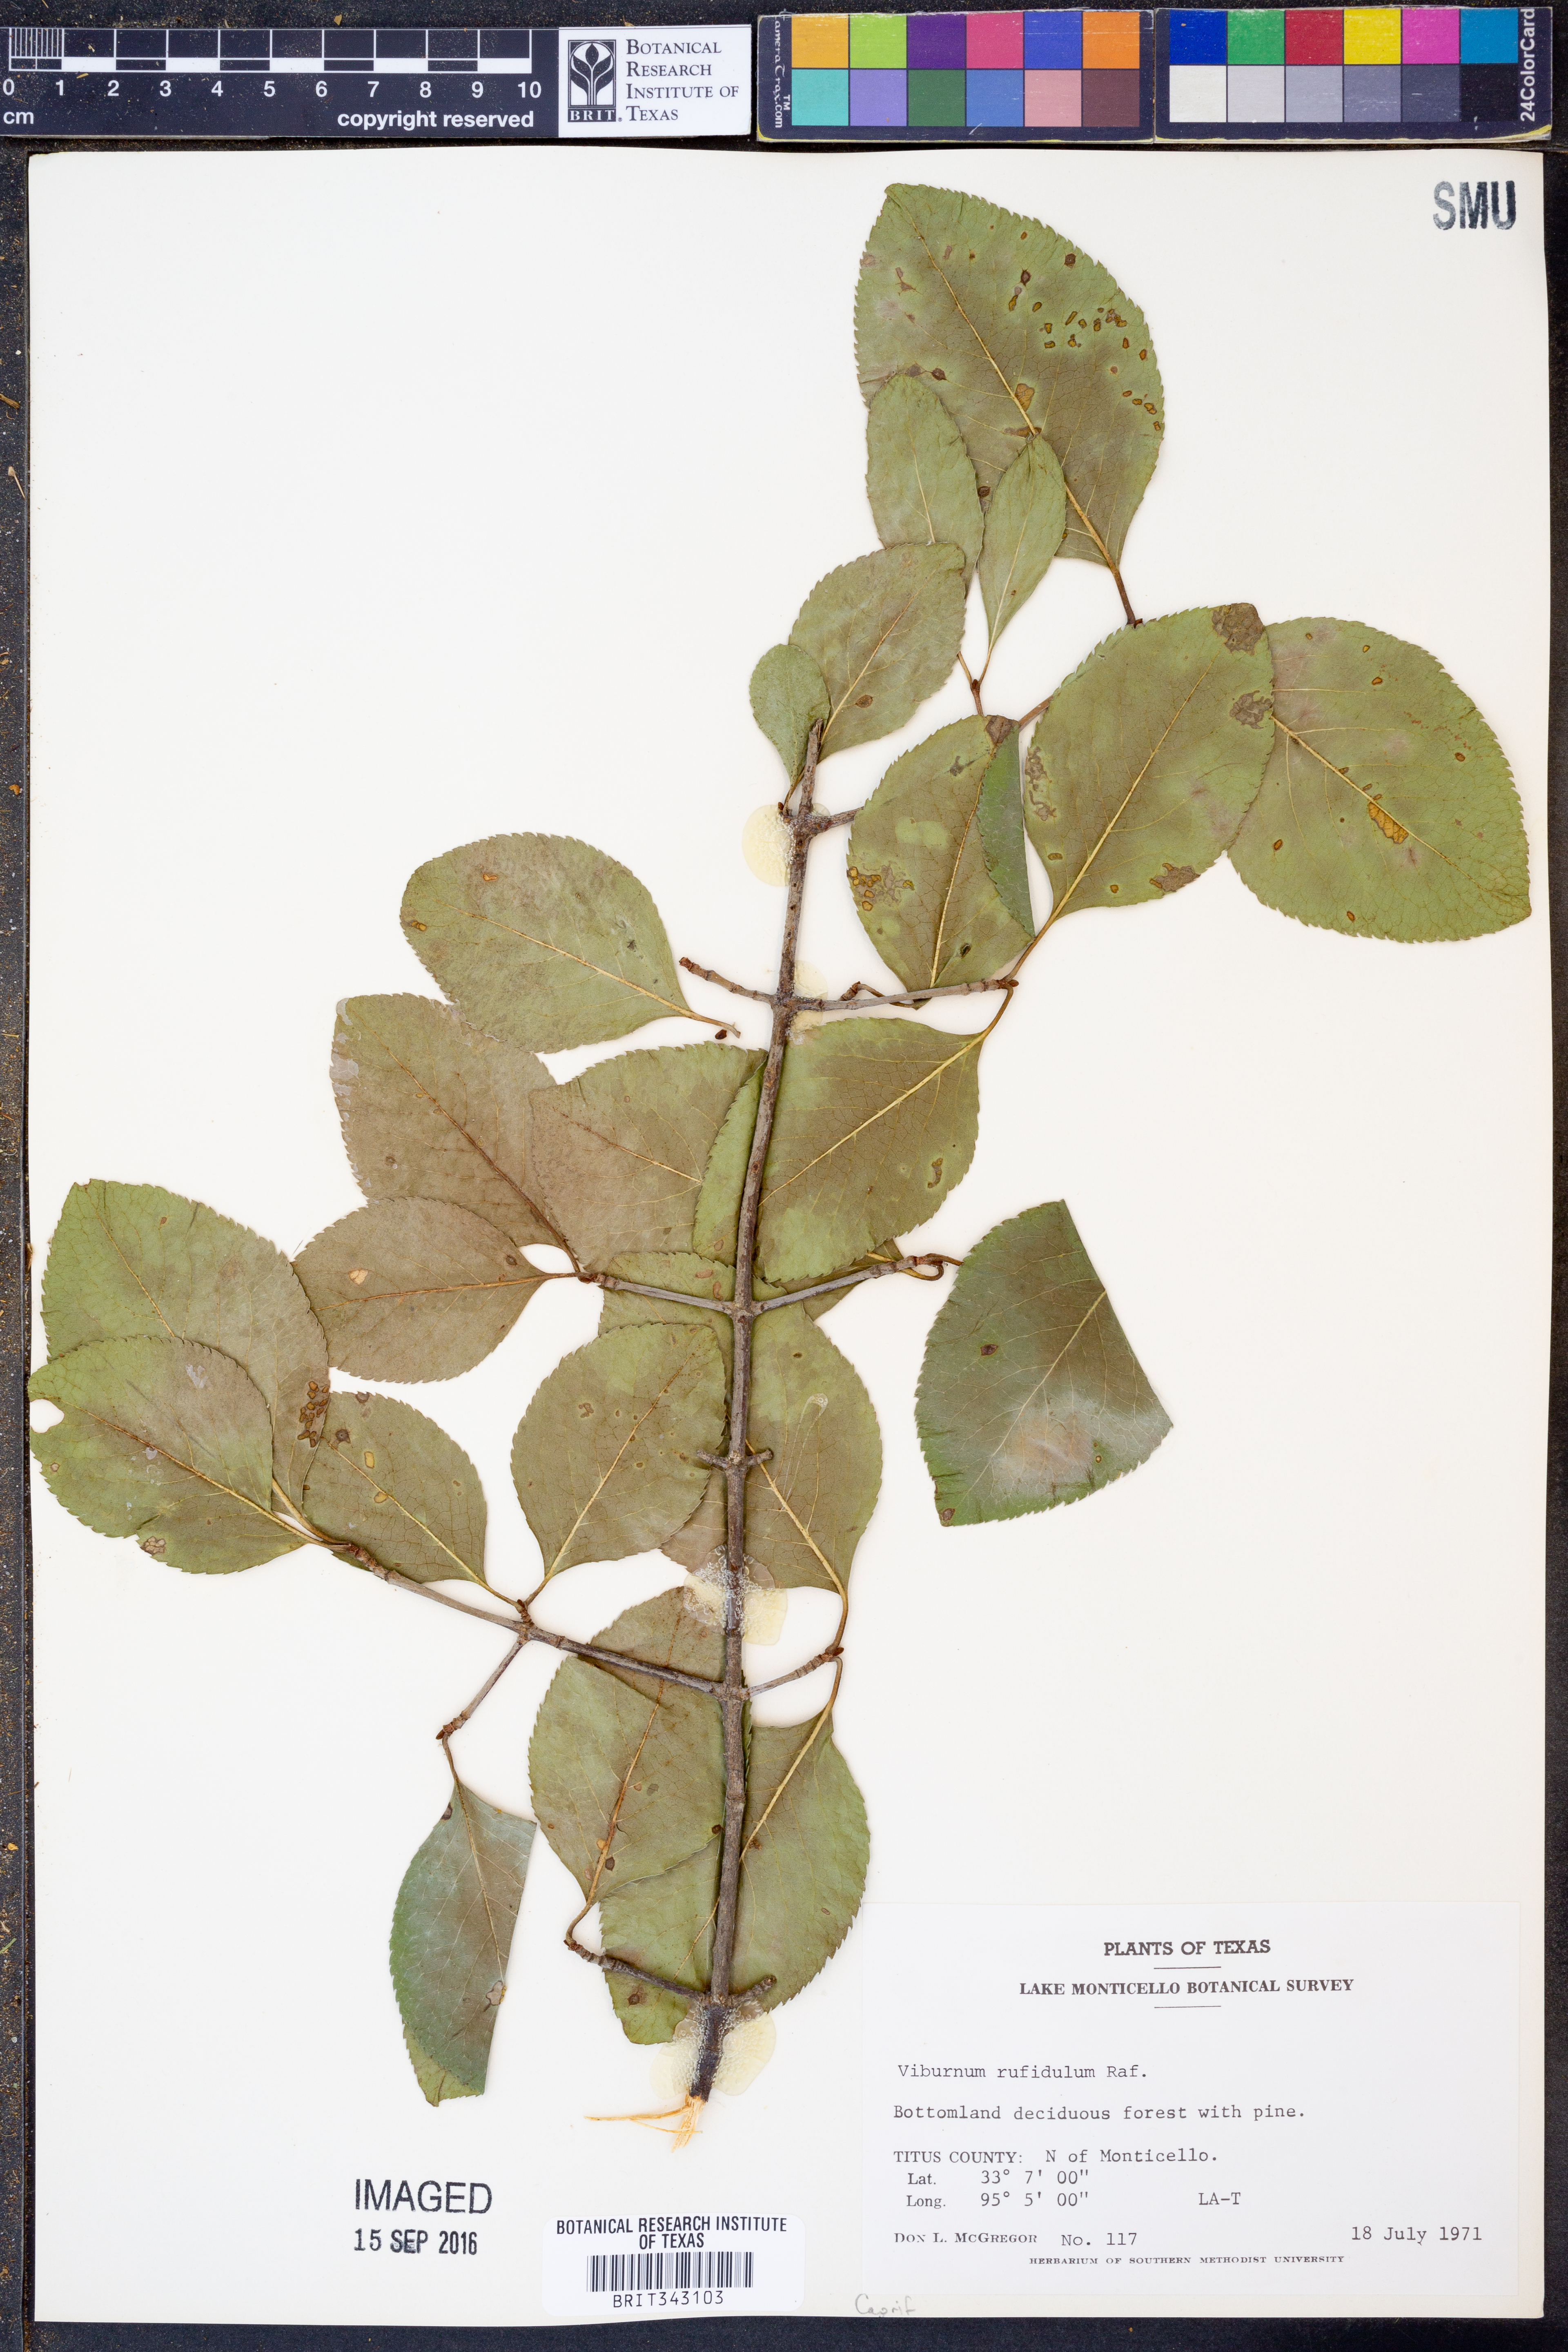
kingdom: Plantae
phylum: Tracheophyta
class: Magnoliopsida
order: Dipsacales
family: Viburnaceae
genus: Viburnum
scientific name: Viburnum rufidulum
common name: Blue haw
